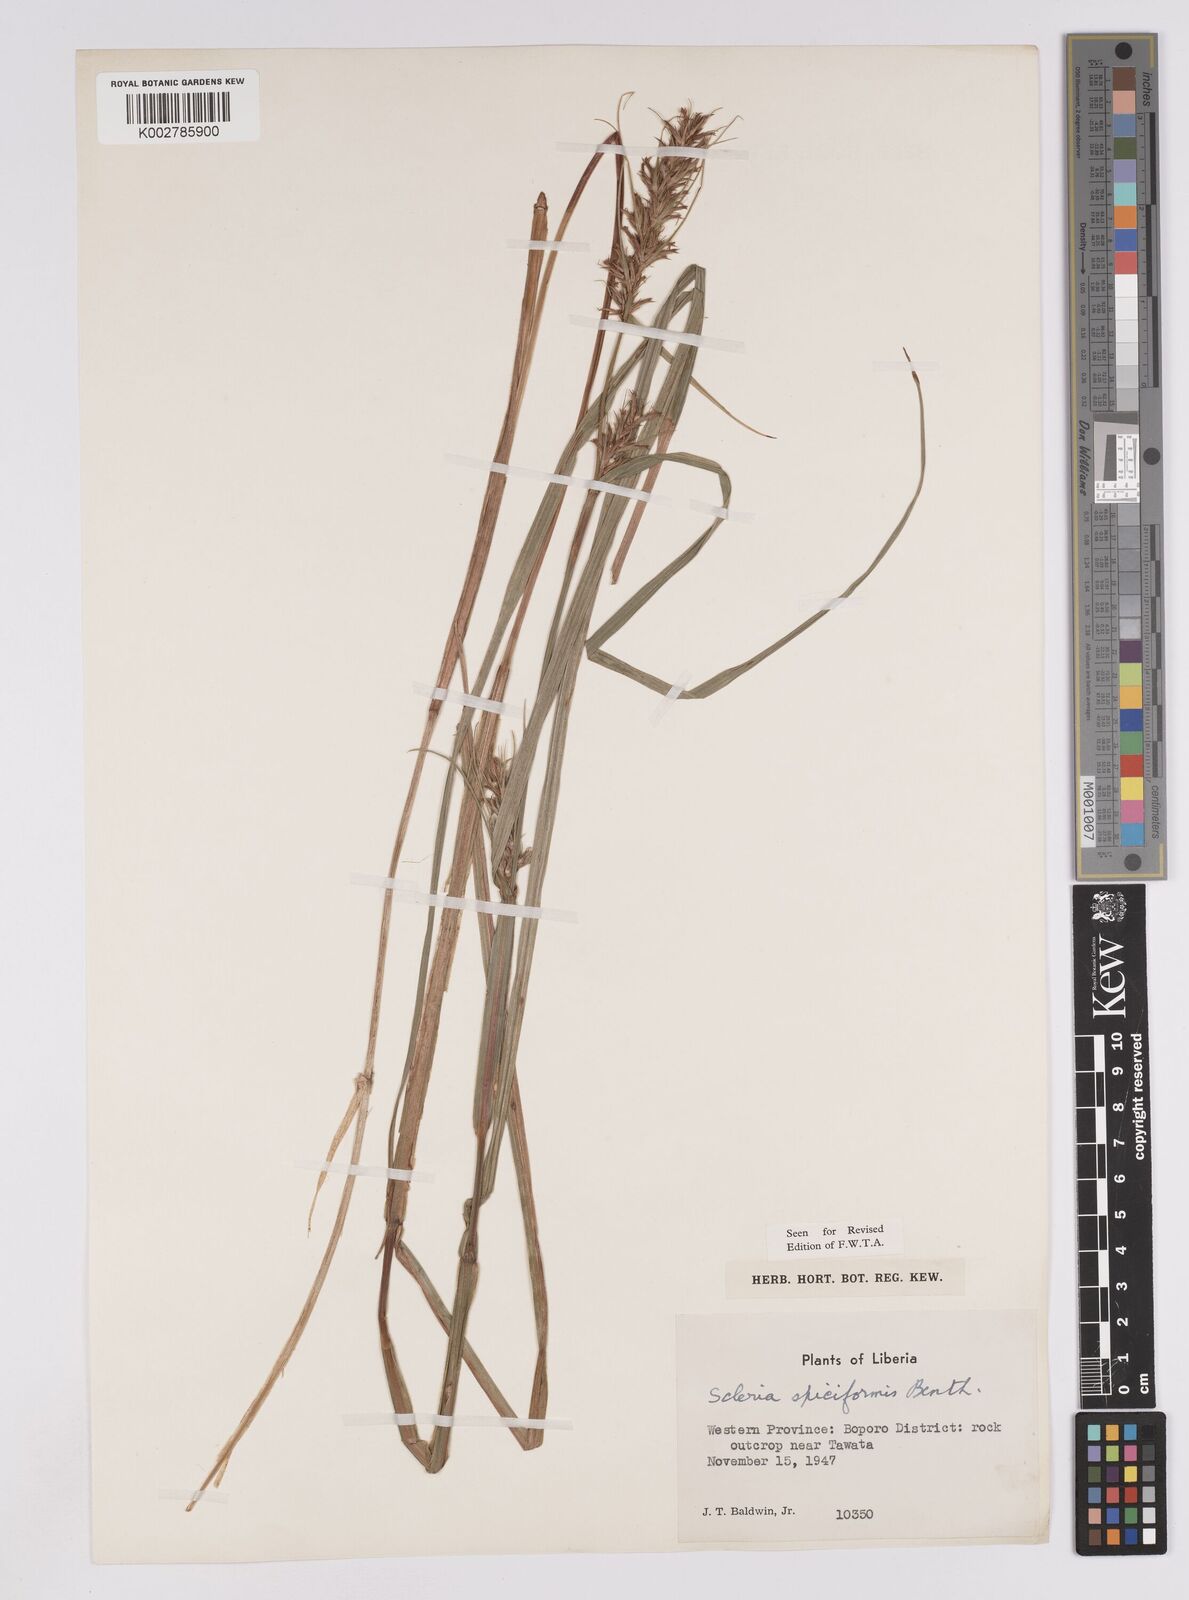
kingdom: Plantae
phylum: Tracheophyta
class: Liliopsida
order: Poales
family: Cyperaceae
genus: Scleria
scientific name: Scleria spiciformis
